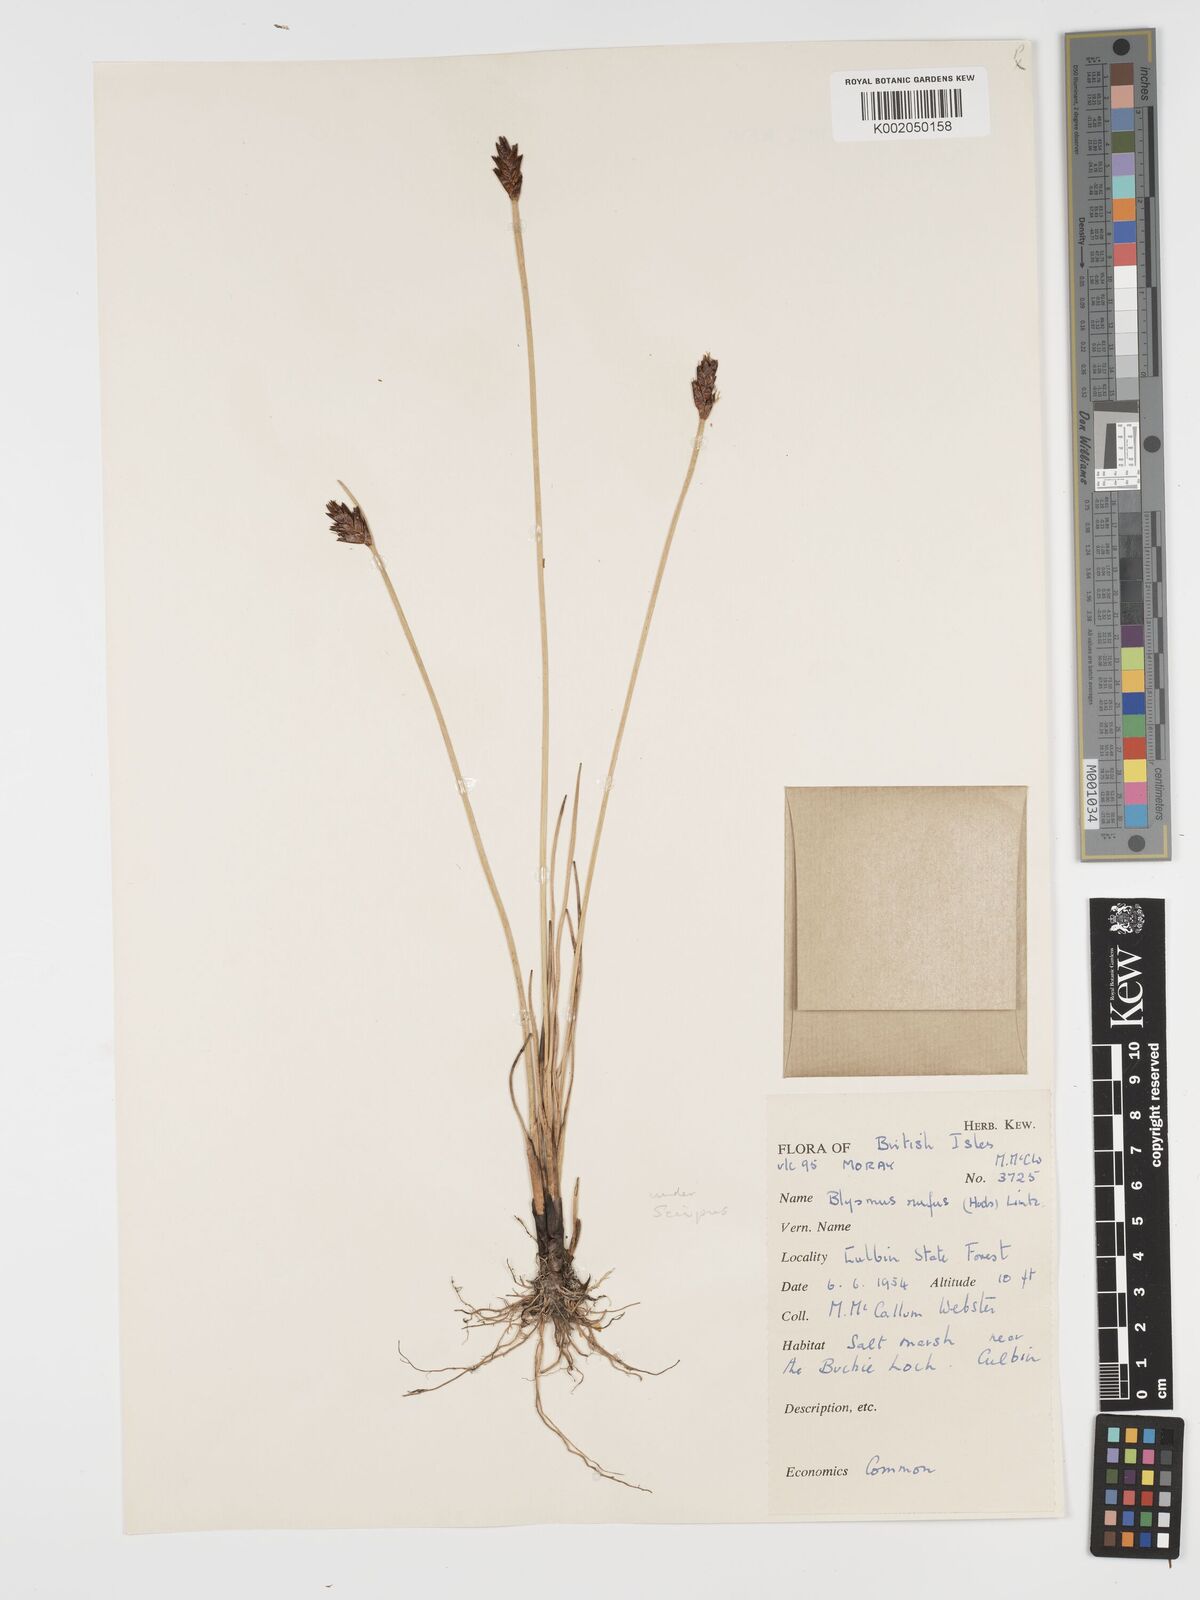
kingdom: Plantae
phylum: Tracheophyta
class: Liliopsida
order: Poales
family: Cyperaceae
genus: Blysmus
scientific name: Blysmus rufus
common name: Saltmarsh flat-sedge
